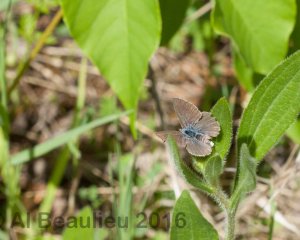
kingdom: Animalia
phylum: Arthropoda
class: Insecta
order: Lepidoptera
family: Lycaenidae
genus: Glaucopsyche
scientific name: Glaucopsyche lygdamus
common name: Silvery Blue
